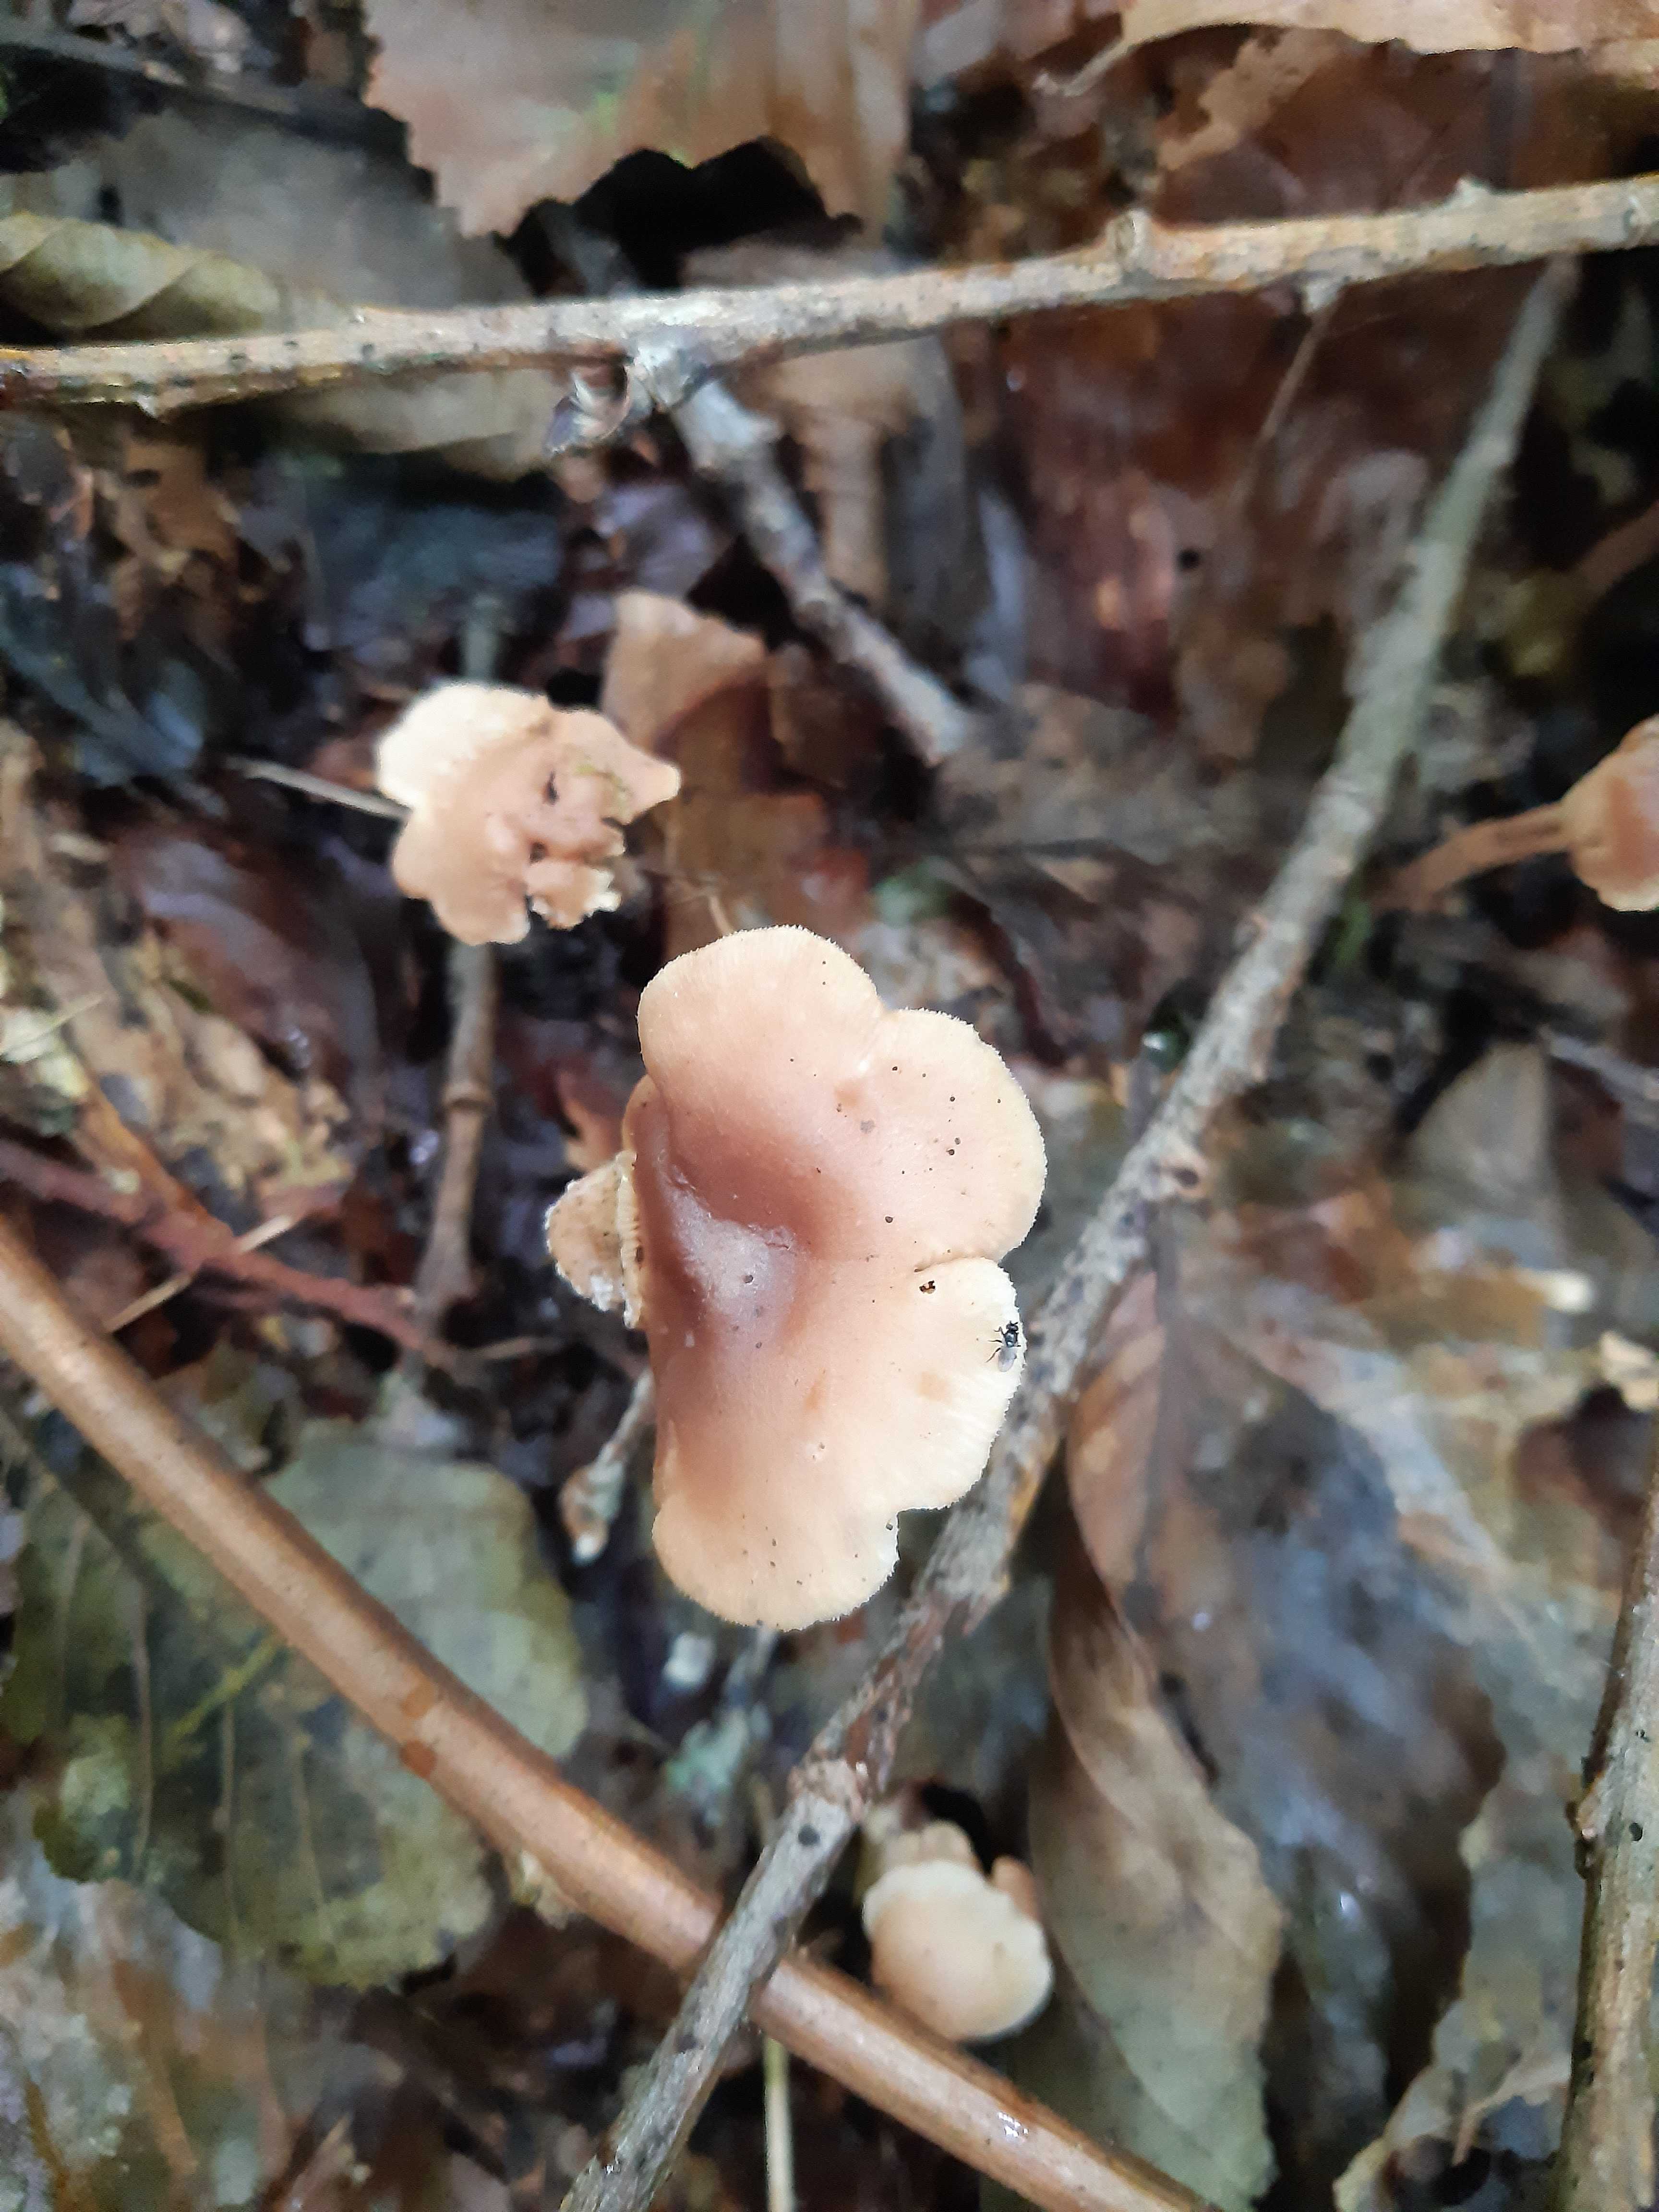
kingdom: Fungi
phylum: Basidiomycota
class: Agaricomycetes
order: Agaricales
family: Omphalotaceae
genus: Collybiopsis
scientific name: Collybiopsis confluens
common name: knippe-fladhat
